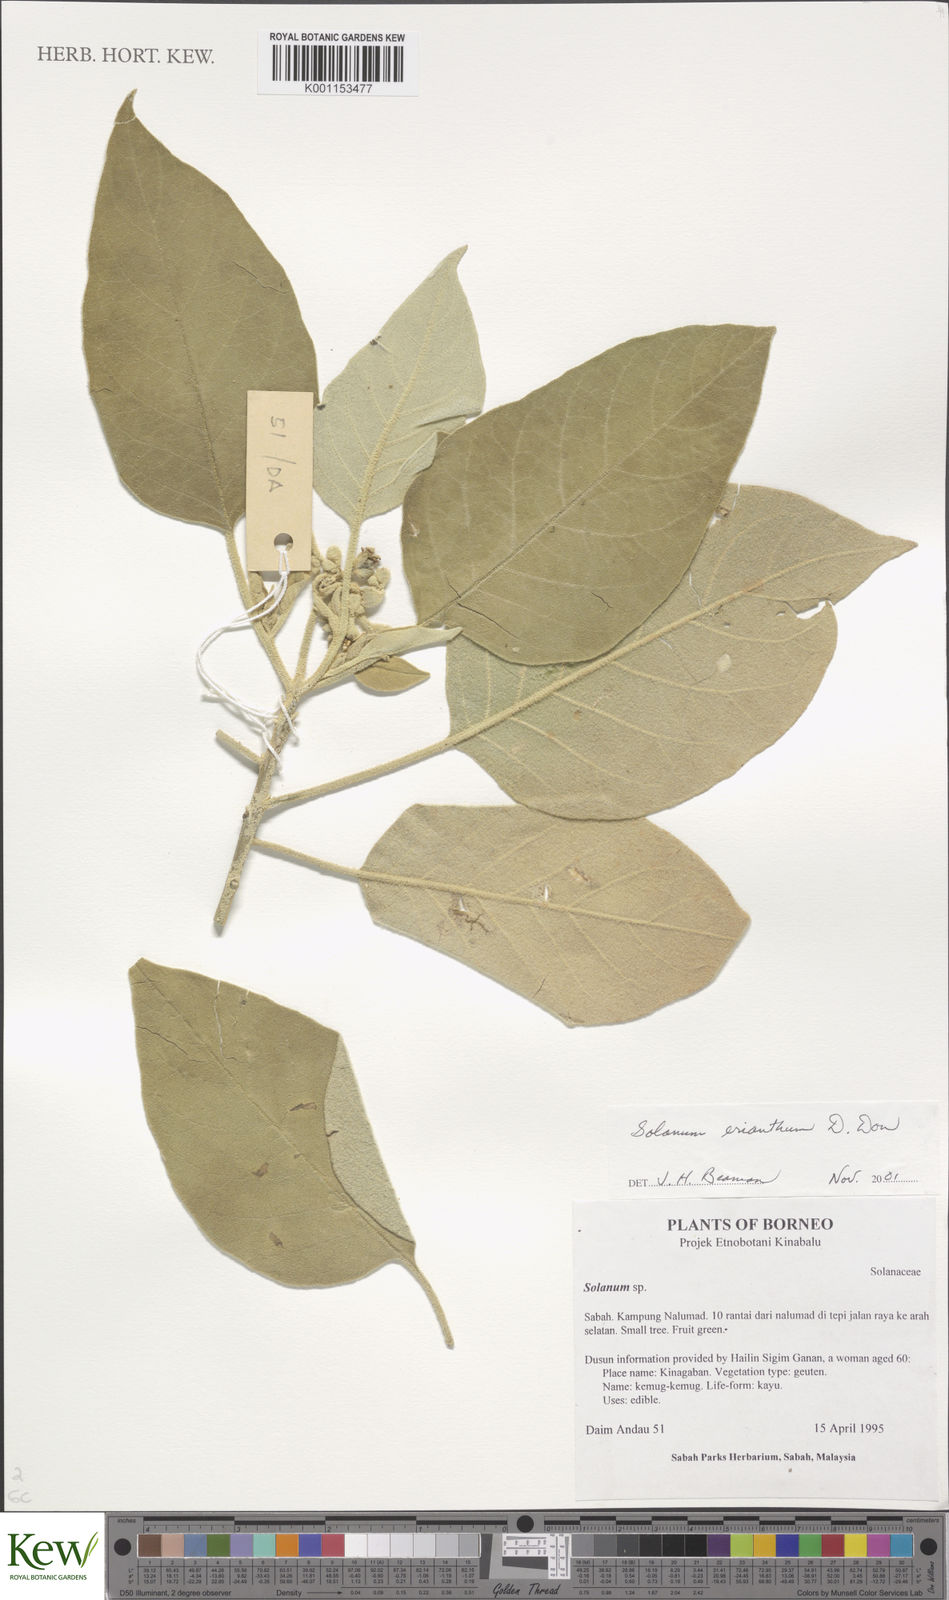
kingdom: Plantae
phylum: Tracheophyta
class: Magnoliopsida
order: Solanales
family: Solanaceae
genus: Solanum
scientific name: Solanum erianthum
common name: Tobacco-tree
